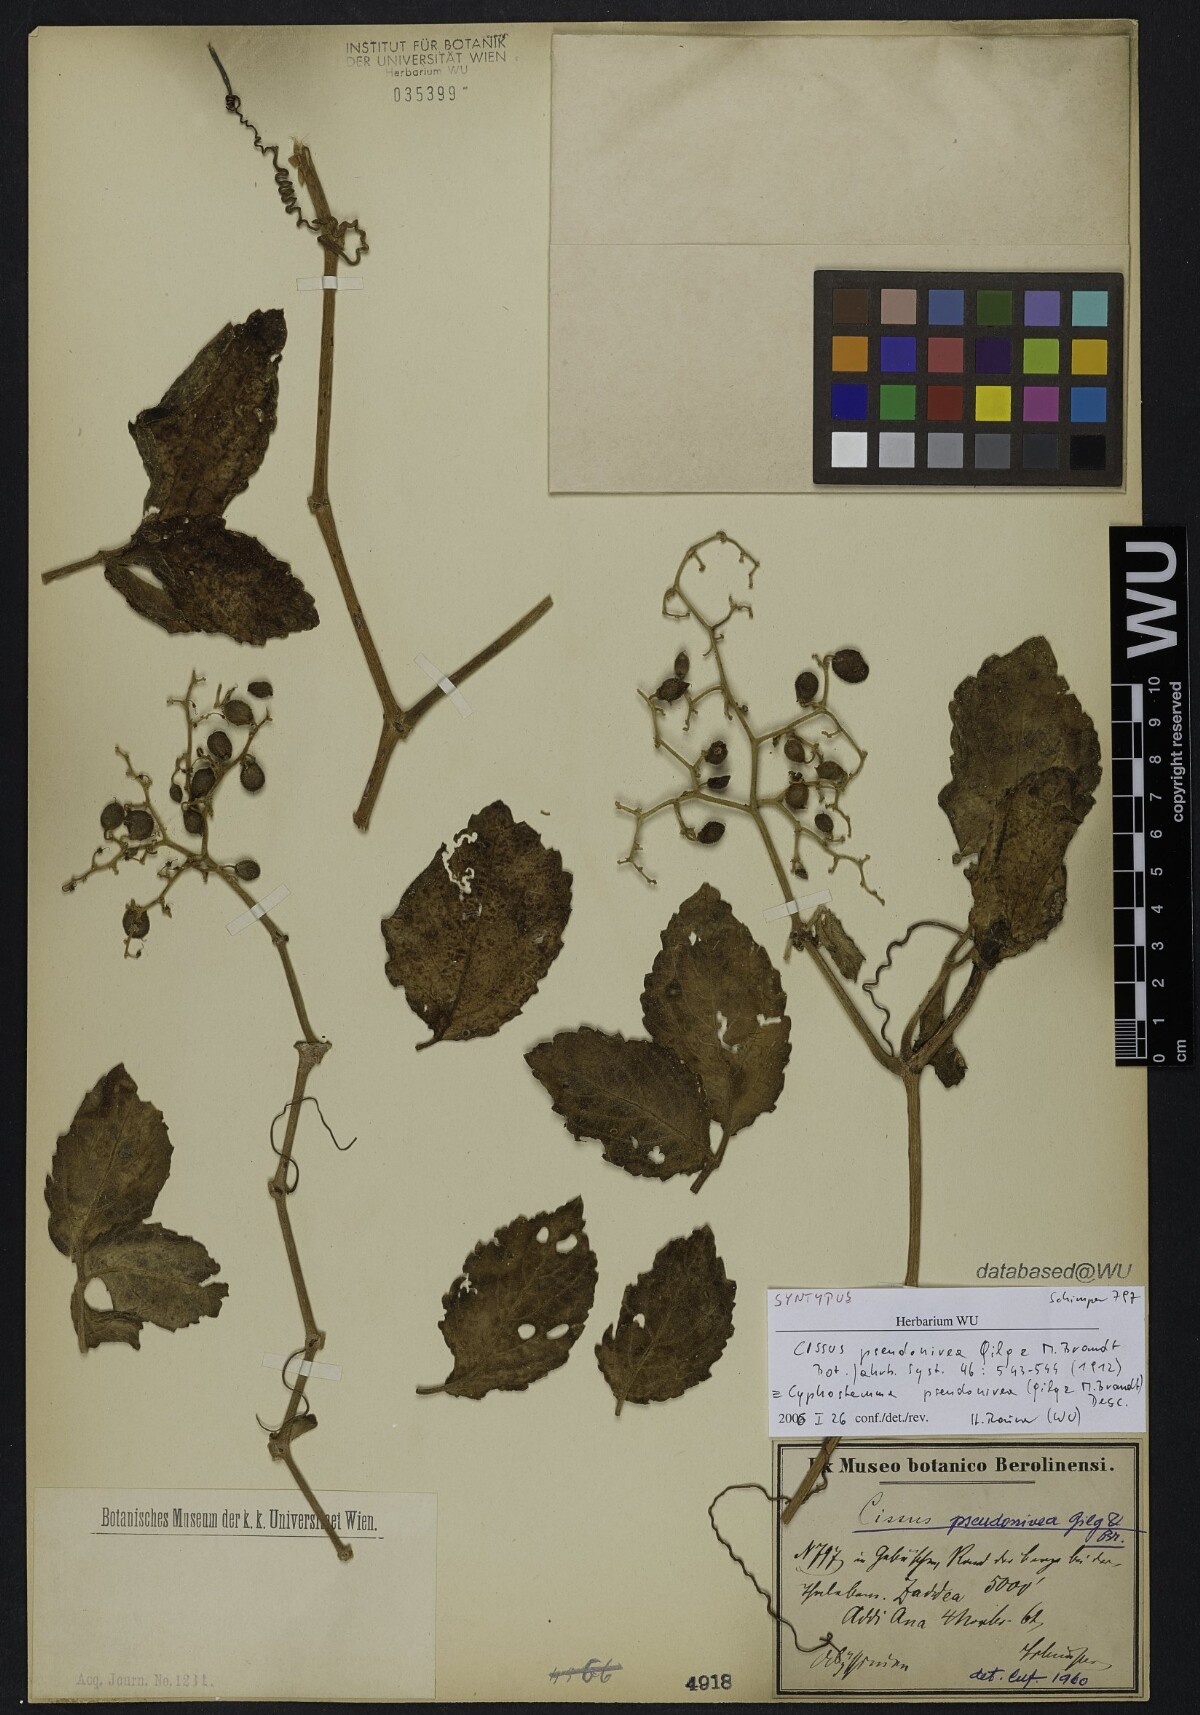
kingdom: Plantae
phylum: Tracheophyta
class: Magnoliopsida
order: Vitales
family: Vitaceae
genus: Cyphostemma
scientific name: Cyphostemma cyphopetalum
